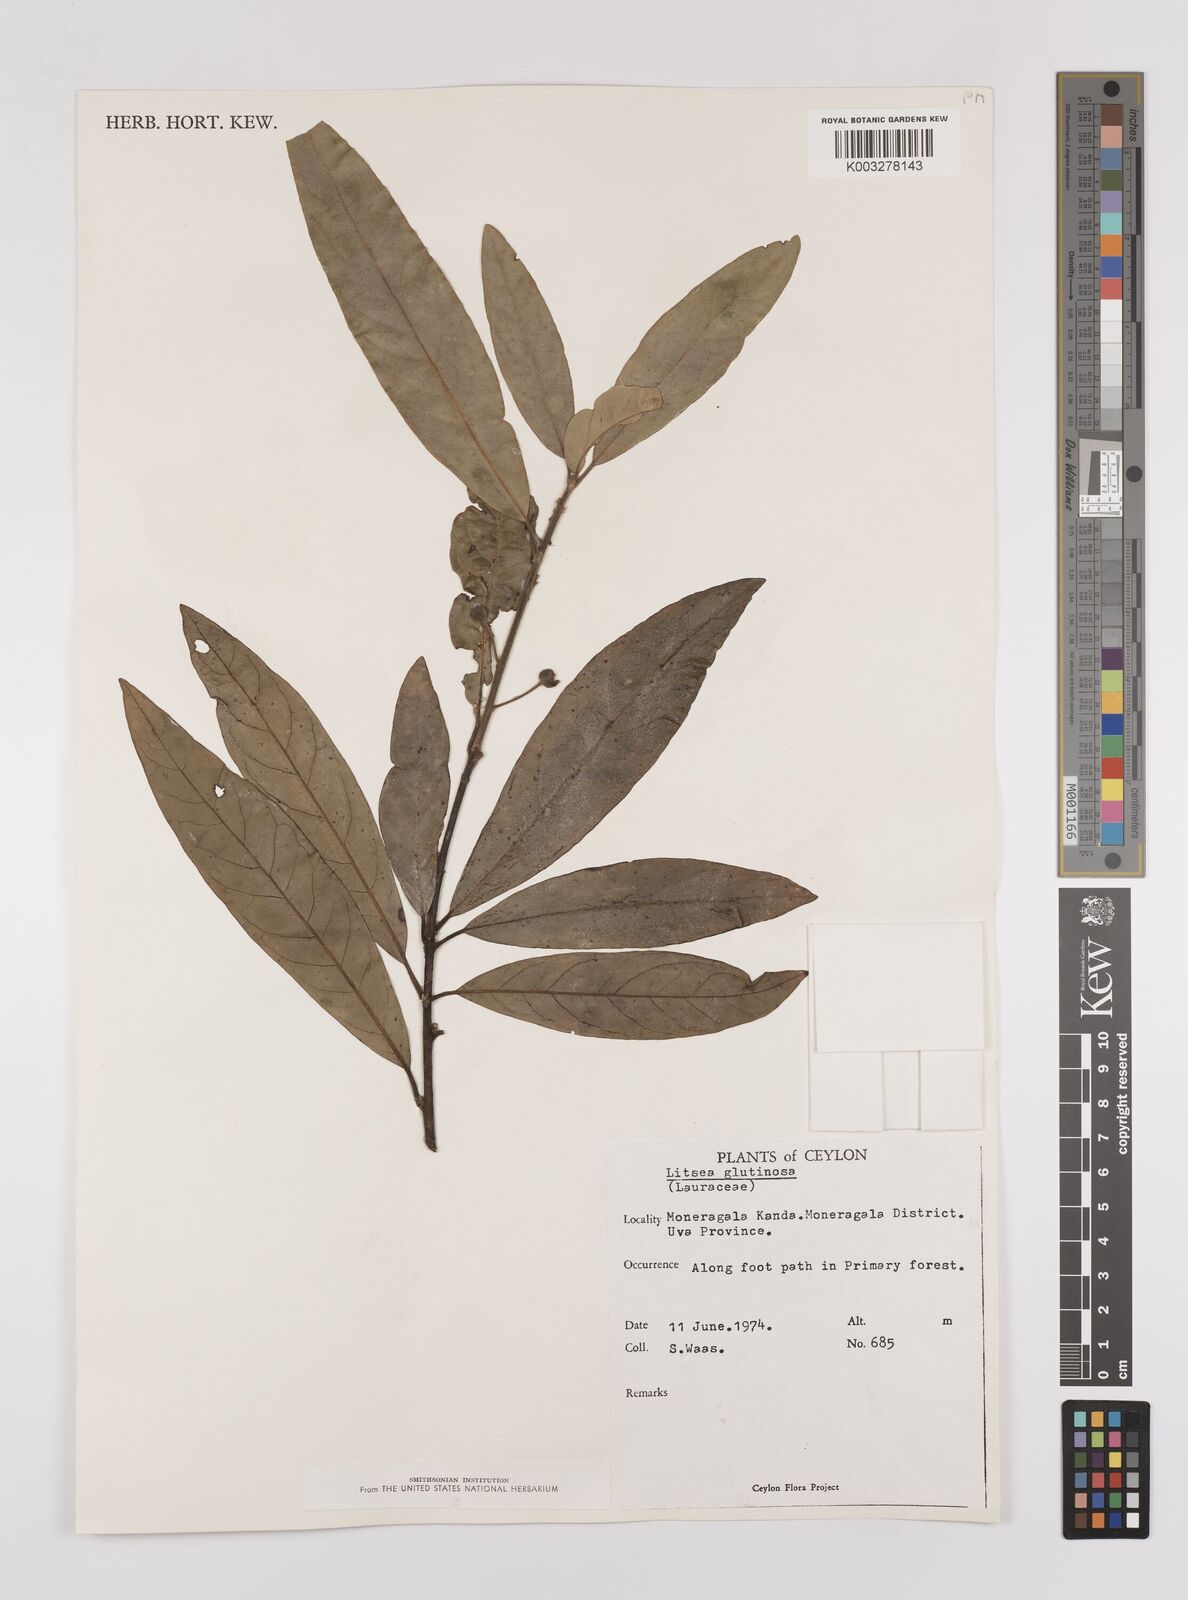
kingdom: Plantae
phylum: Tracheophyta
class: Magnoliopsida
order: Laurales
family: Lauraceae
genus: Litsea
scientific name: Litsea
